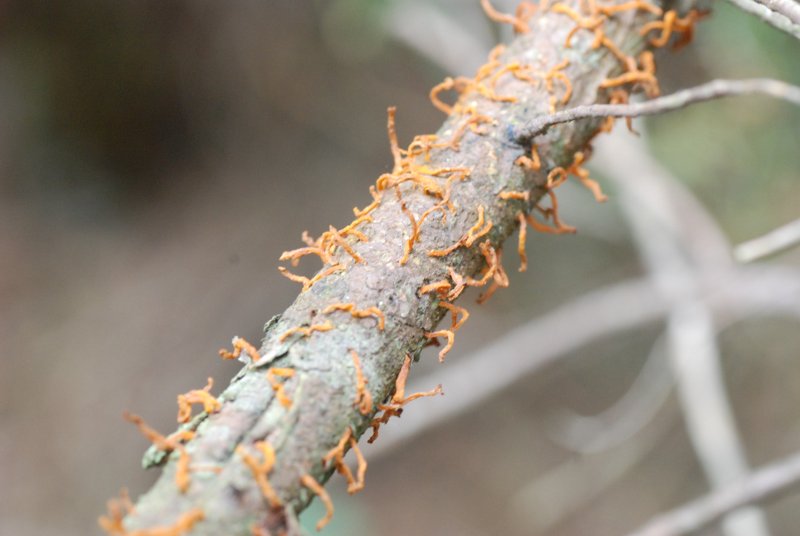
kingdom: Fungi
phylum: Basidiomycota
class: Pucciniomycetes
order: Pucciniales
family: Gymnosporangiaceae
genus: Gymnosporangium
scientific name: Gymnosporangium clavariiforme
